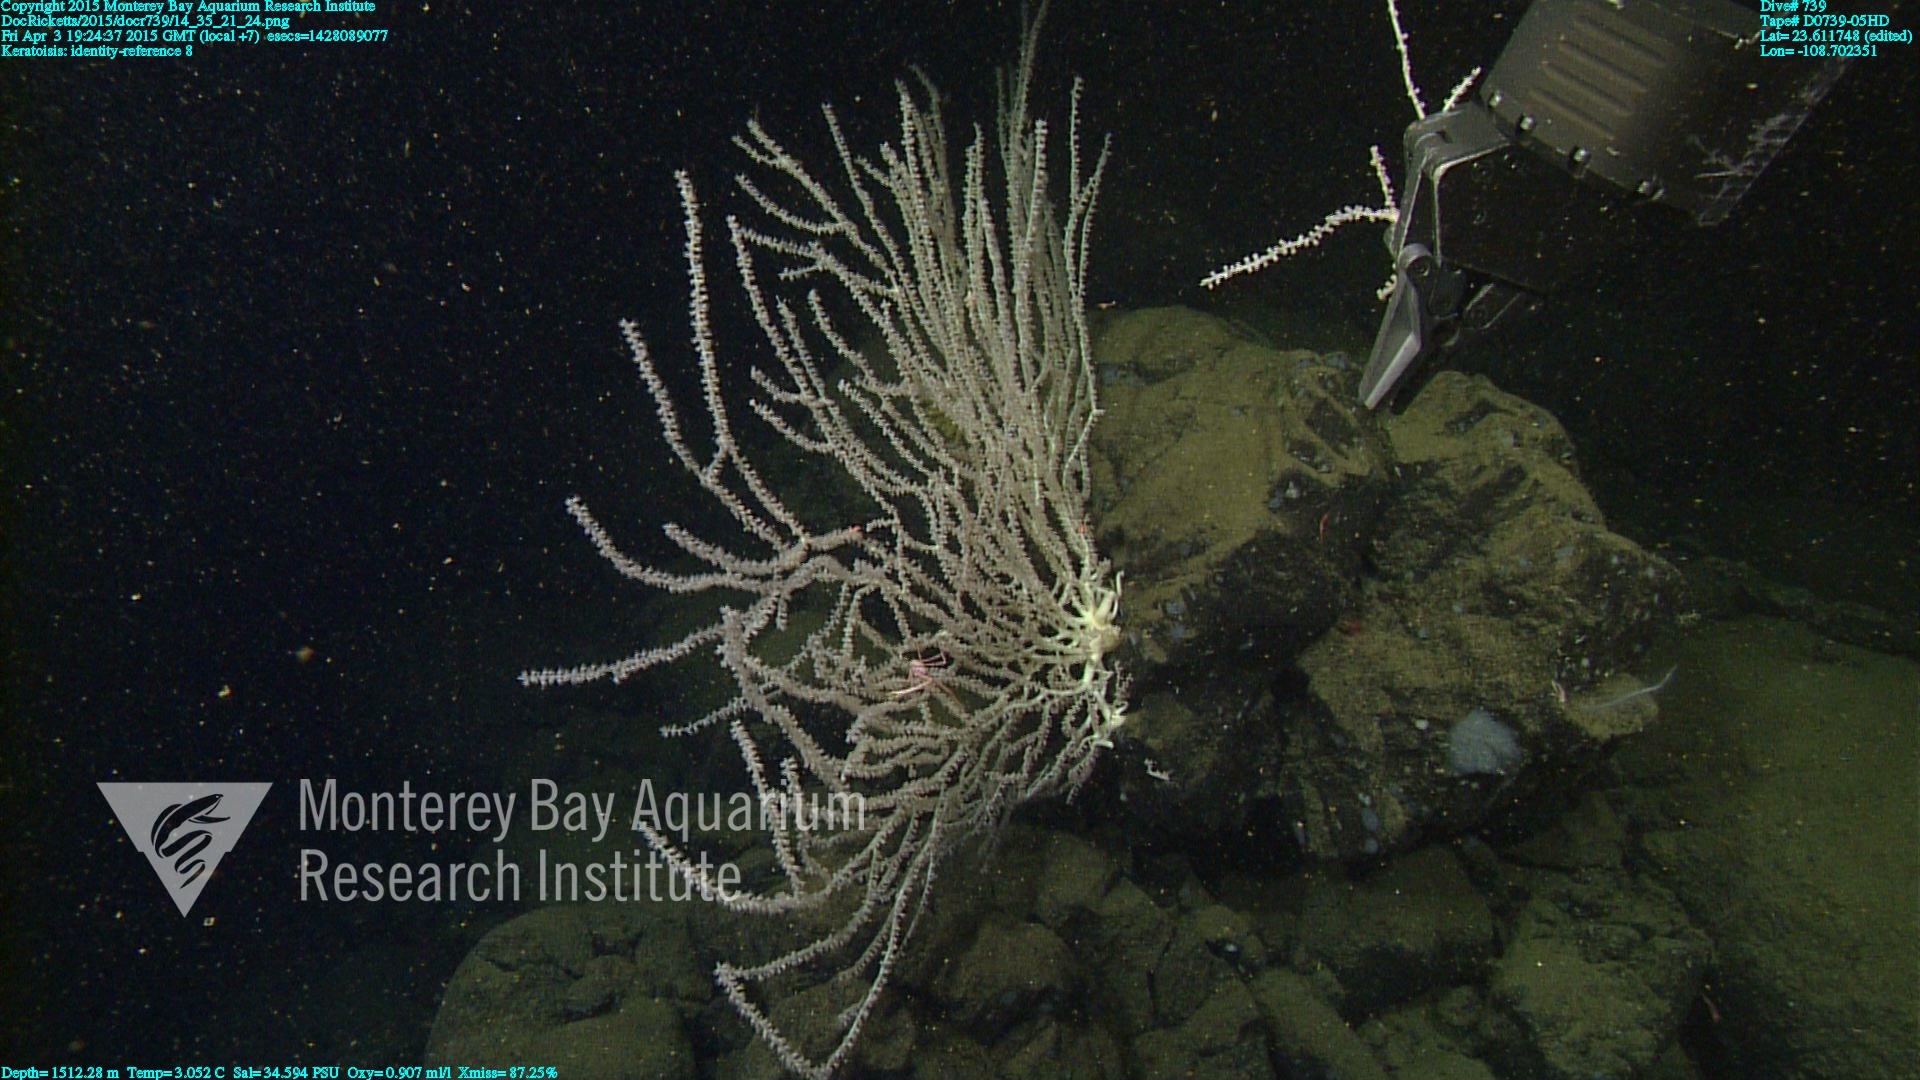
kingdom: Animalia
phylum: Cnidaria
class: Anthozoa
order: Scleralcyonacea
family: Keratoisididae
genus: Keratoisis
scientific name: Keratoisis
